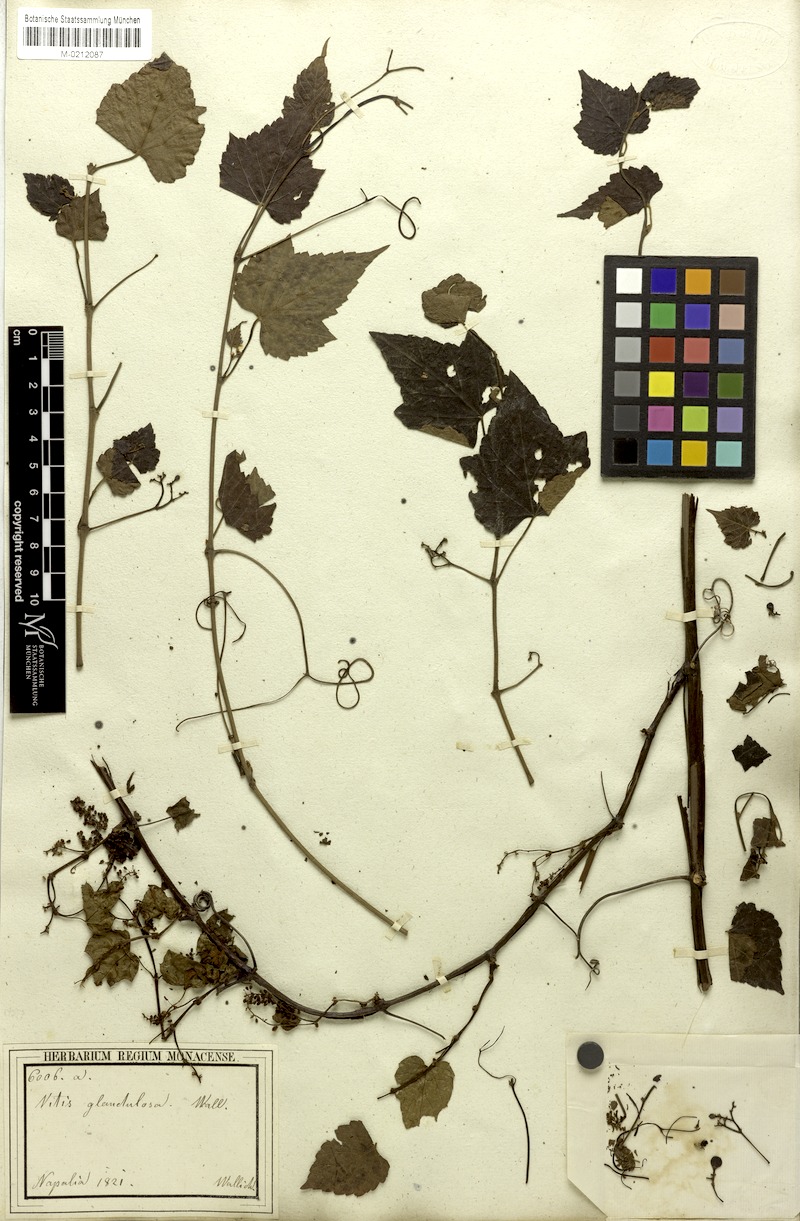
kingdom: Plantae
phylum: Tracheophyta
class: Magnoliopsida
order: Vitales
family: Vitaceae
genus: Parthenocissus
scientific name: Parthenocissus semicordata
